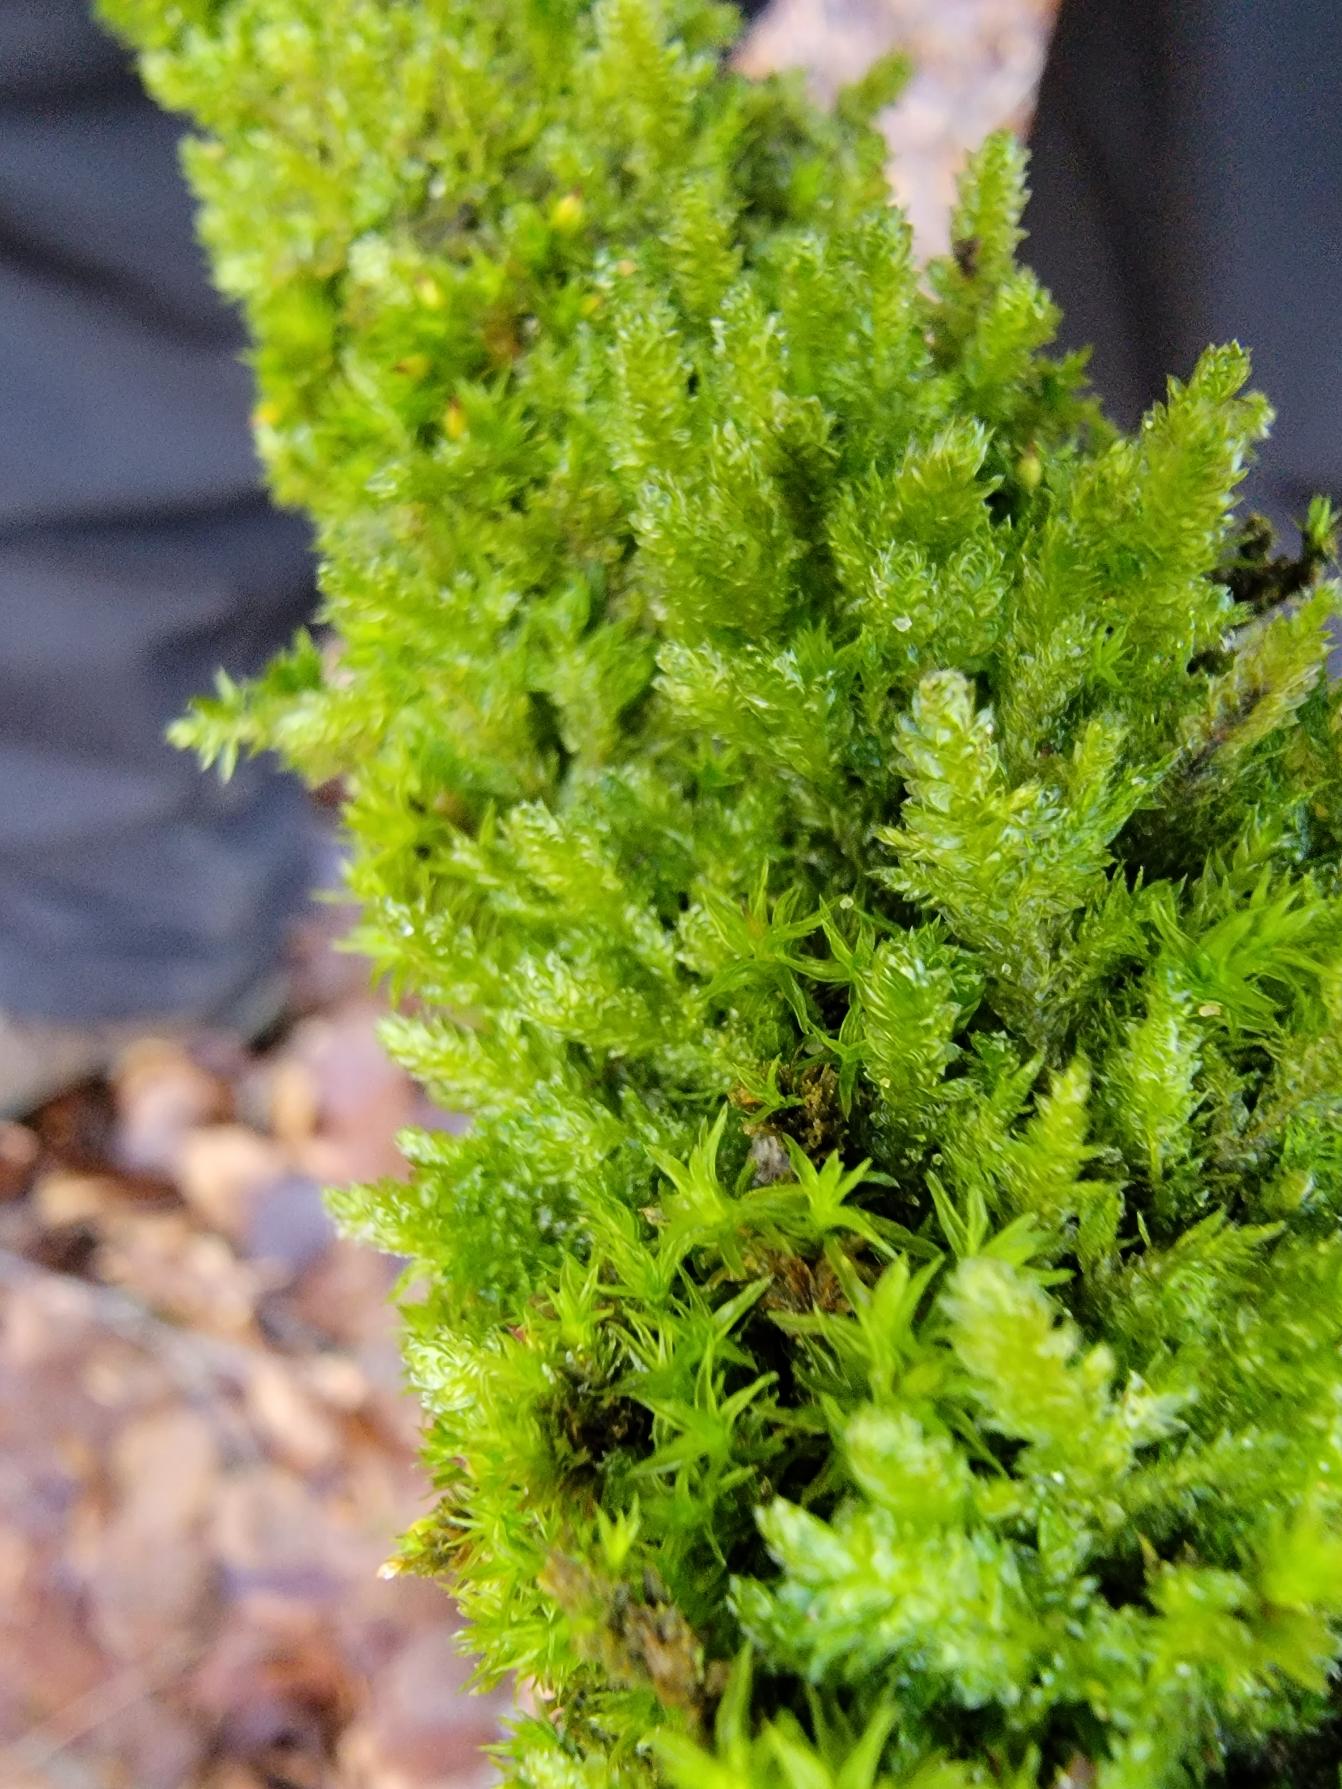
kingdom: Plantae
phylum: Bryophyta
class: Bryopsida
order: Hypnales
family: Neckeraceae
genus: Neckera
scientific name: Neckera pumila
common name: Lav fladmos
